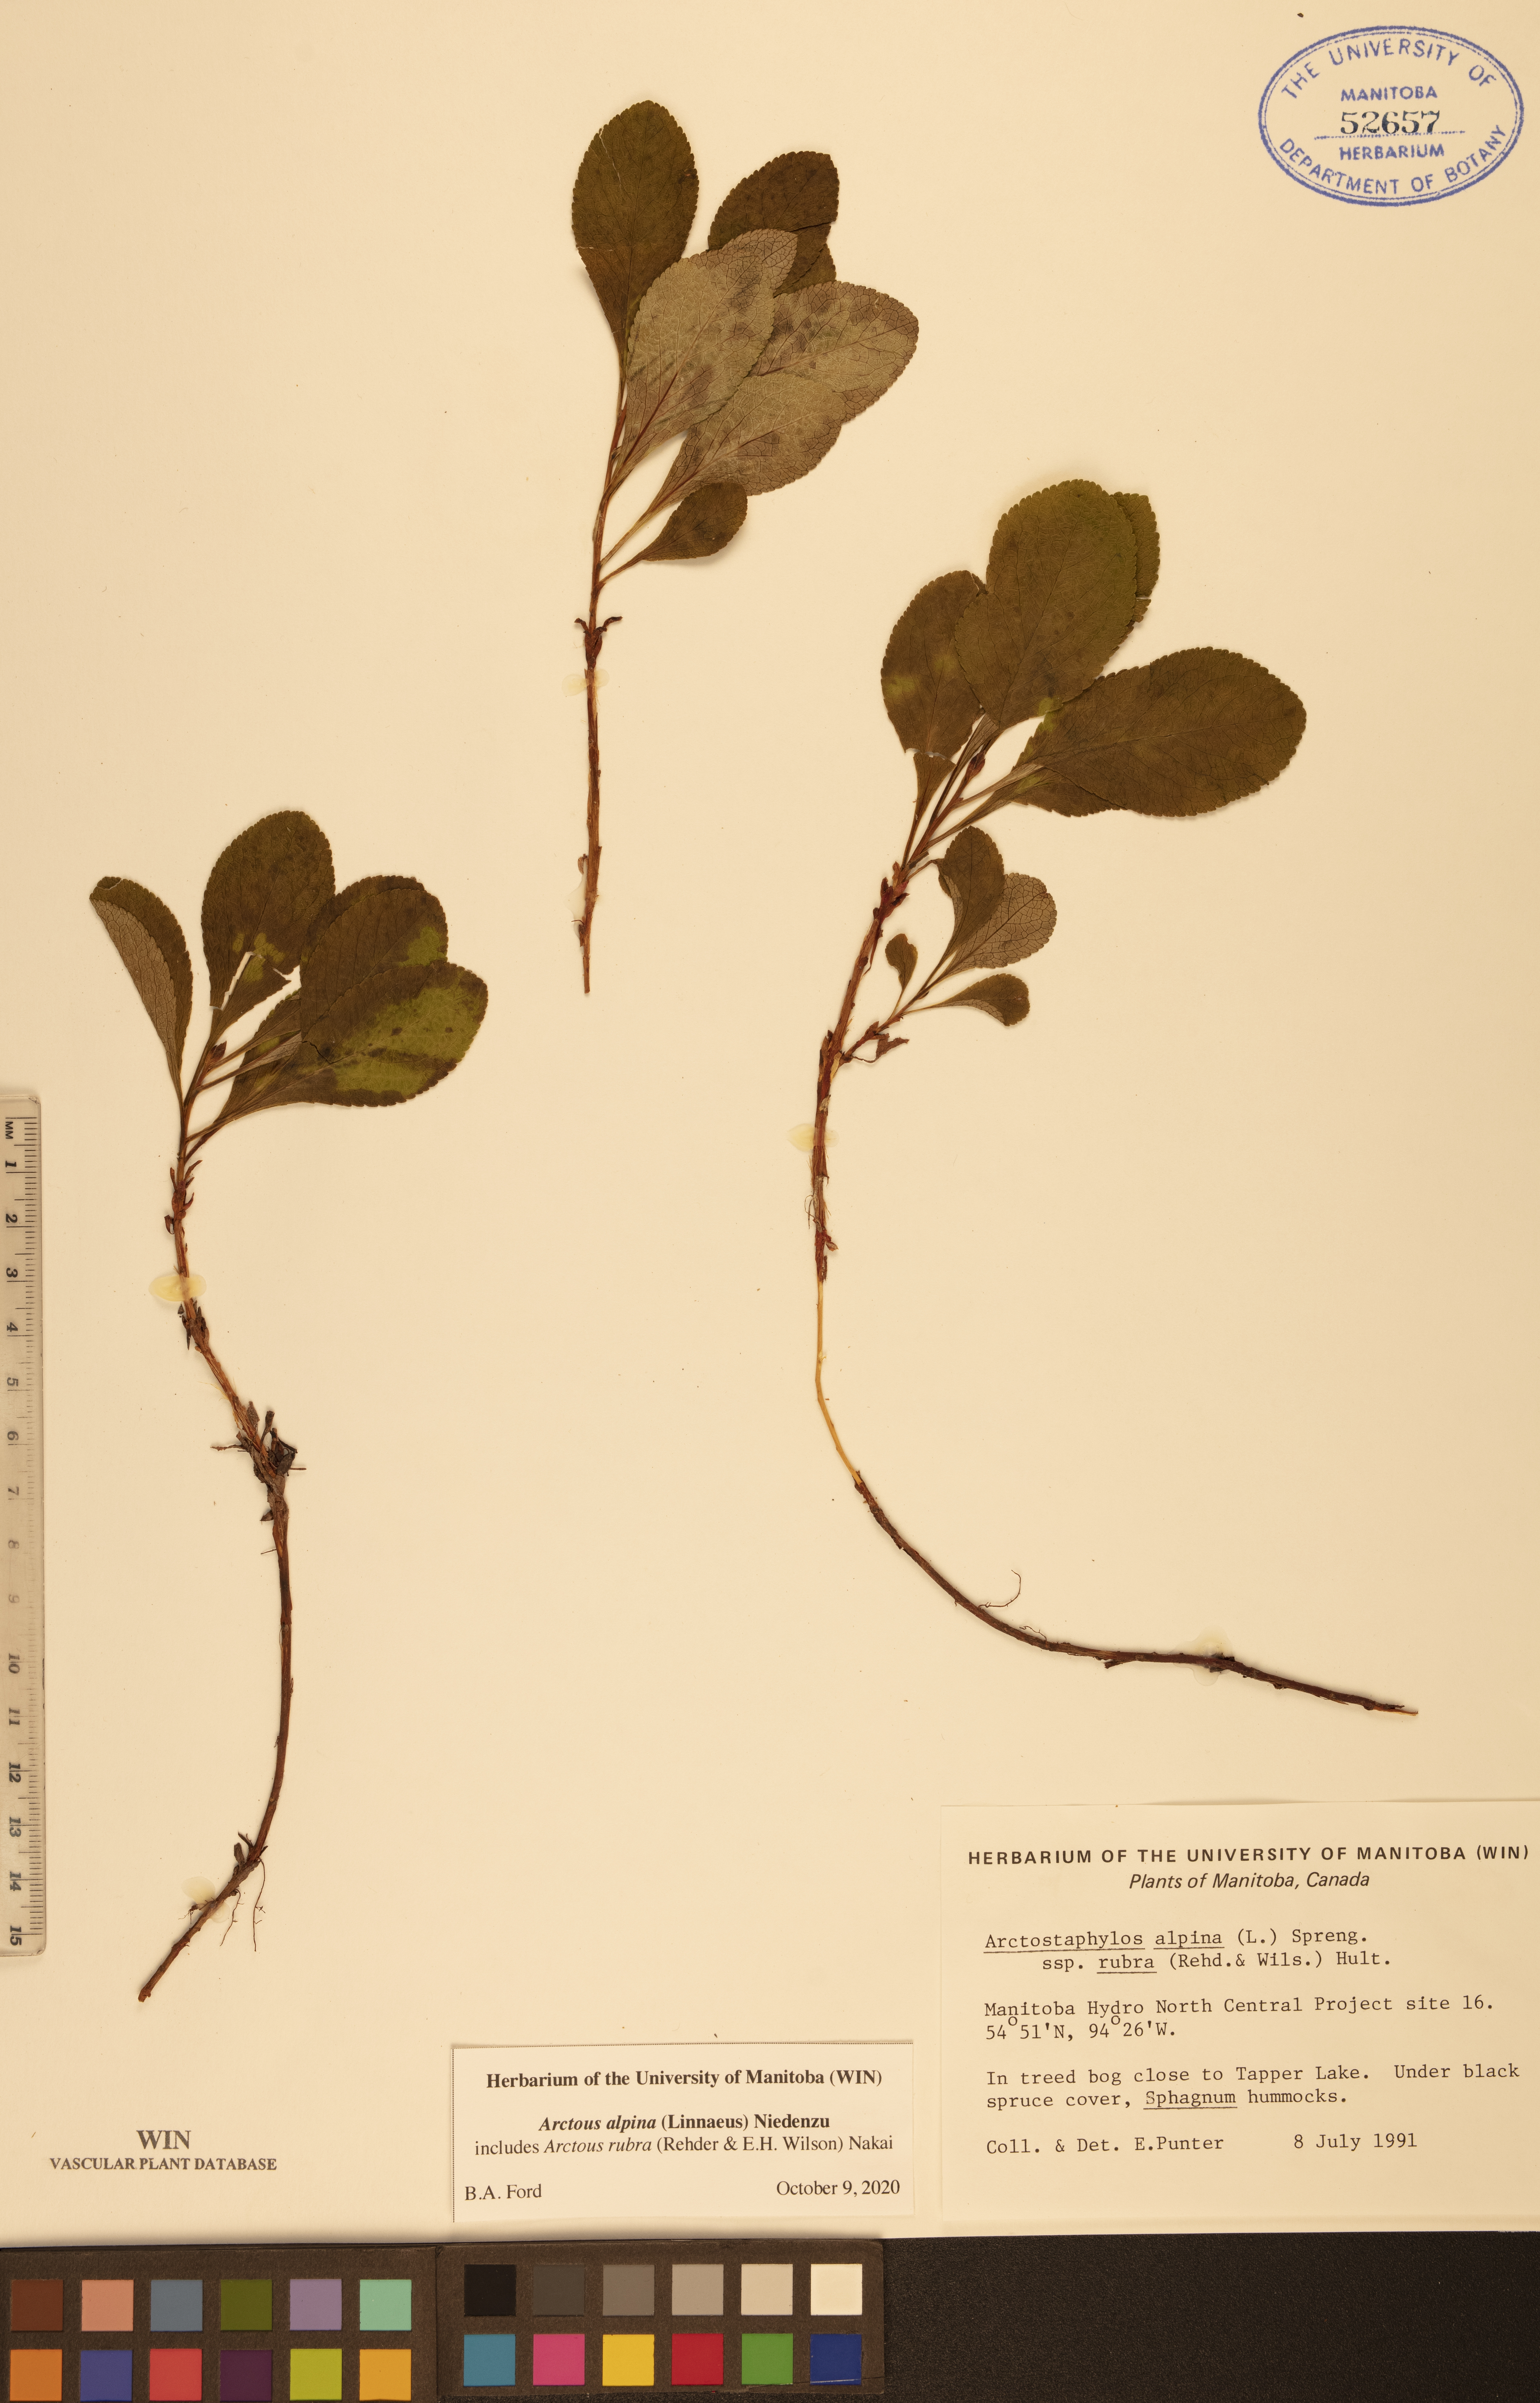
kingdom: Plantae
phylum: Tracheophyta
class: Magnoliopsida
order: Ericales
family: Ericaceae
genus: Arctostaphylos
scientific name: Arctostaphylos alpinus
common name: Alpine bearberry
